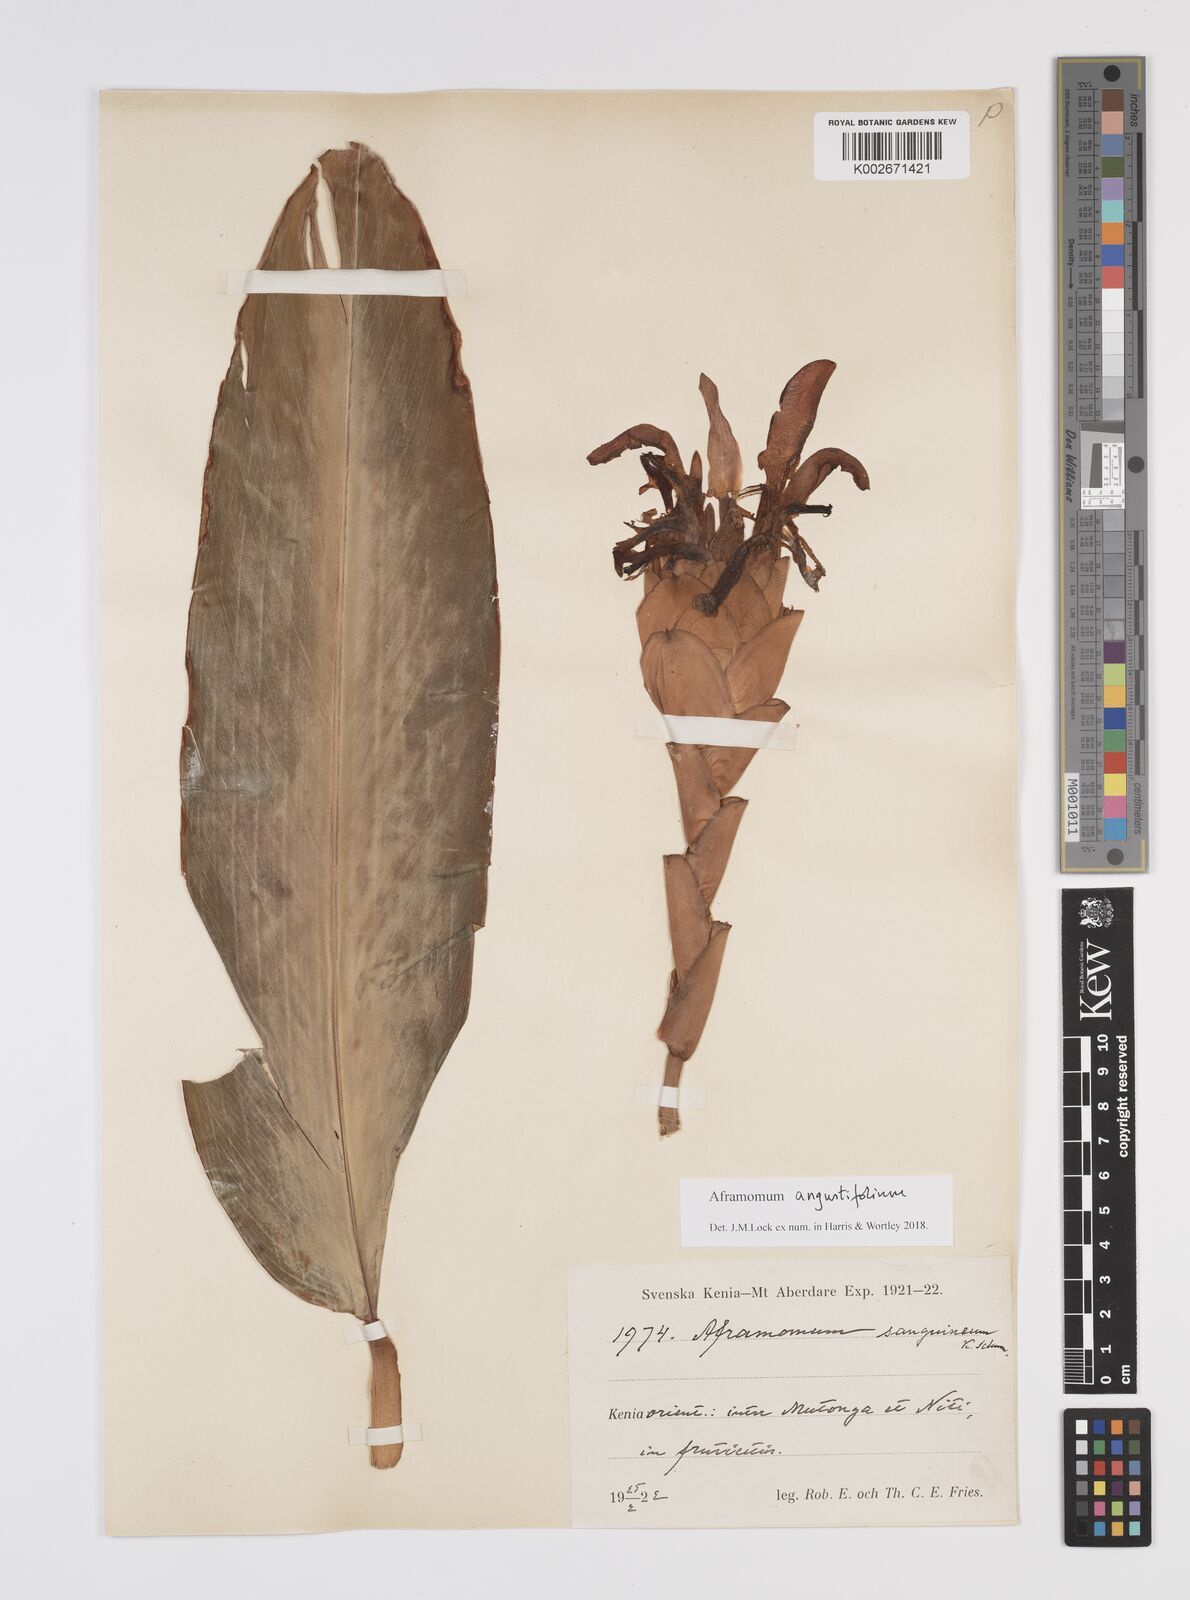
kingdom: Plantae
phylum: Tracheophyta
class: Liliopsida
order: Zingiberales
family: Zingiberaceae
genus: Aframomum
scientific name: Aframomum angustifolium
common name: Guinea grains
